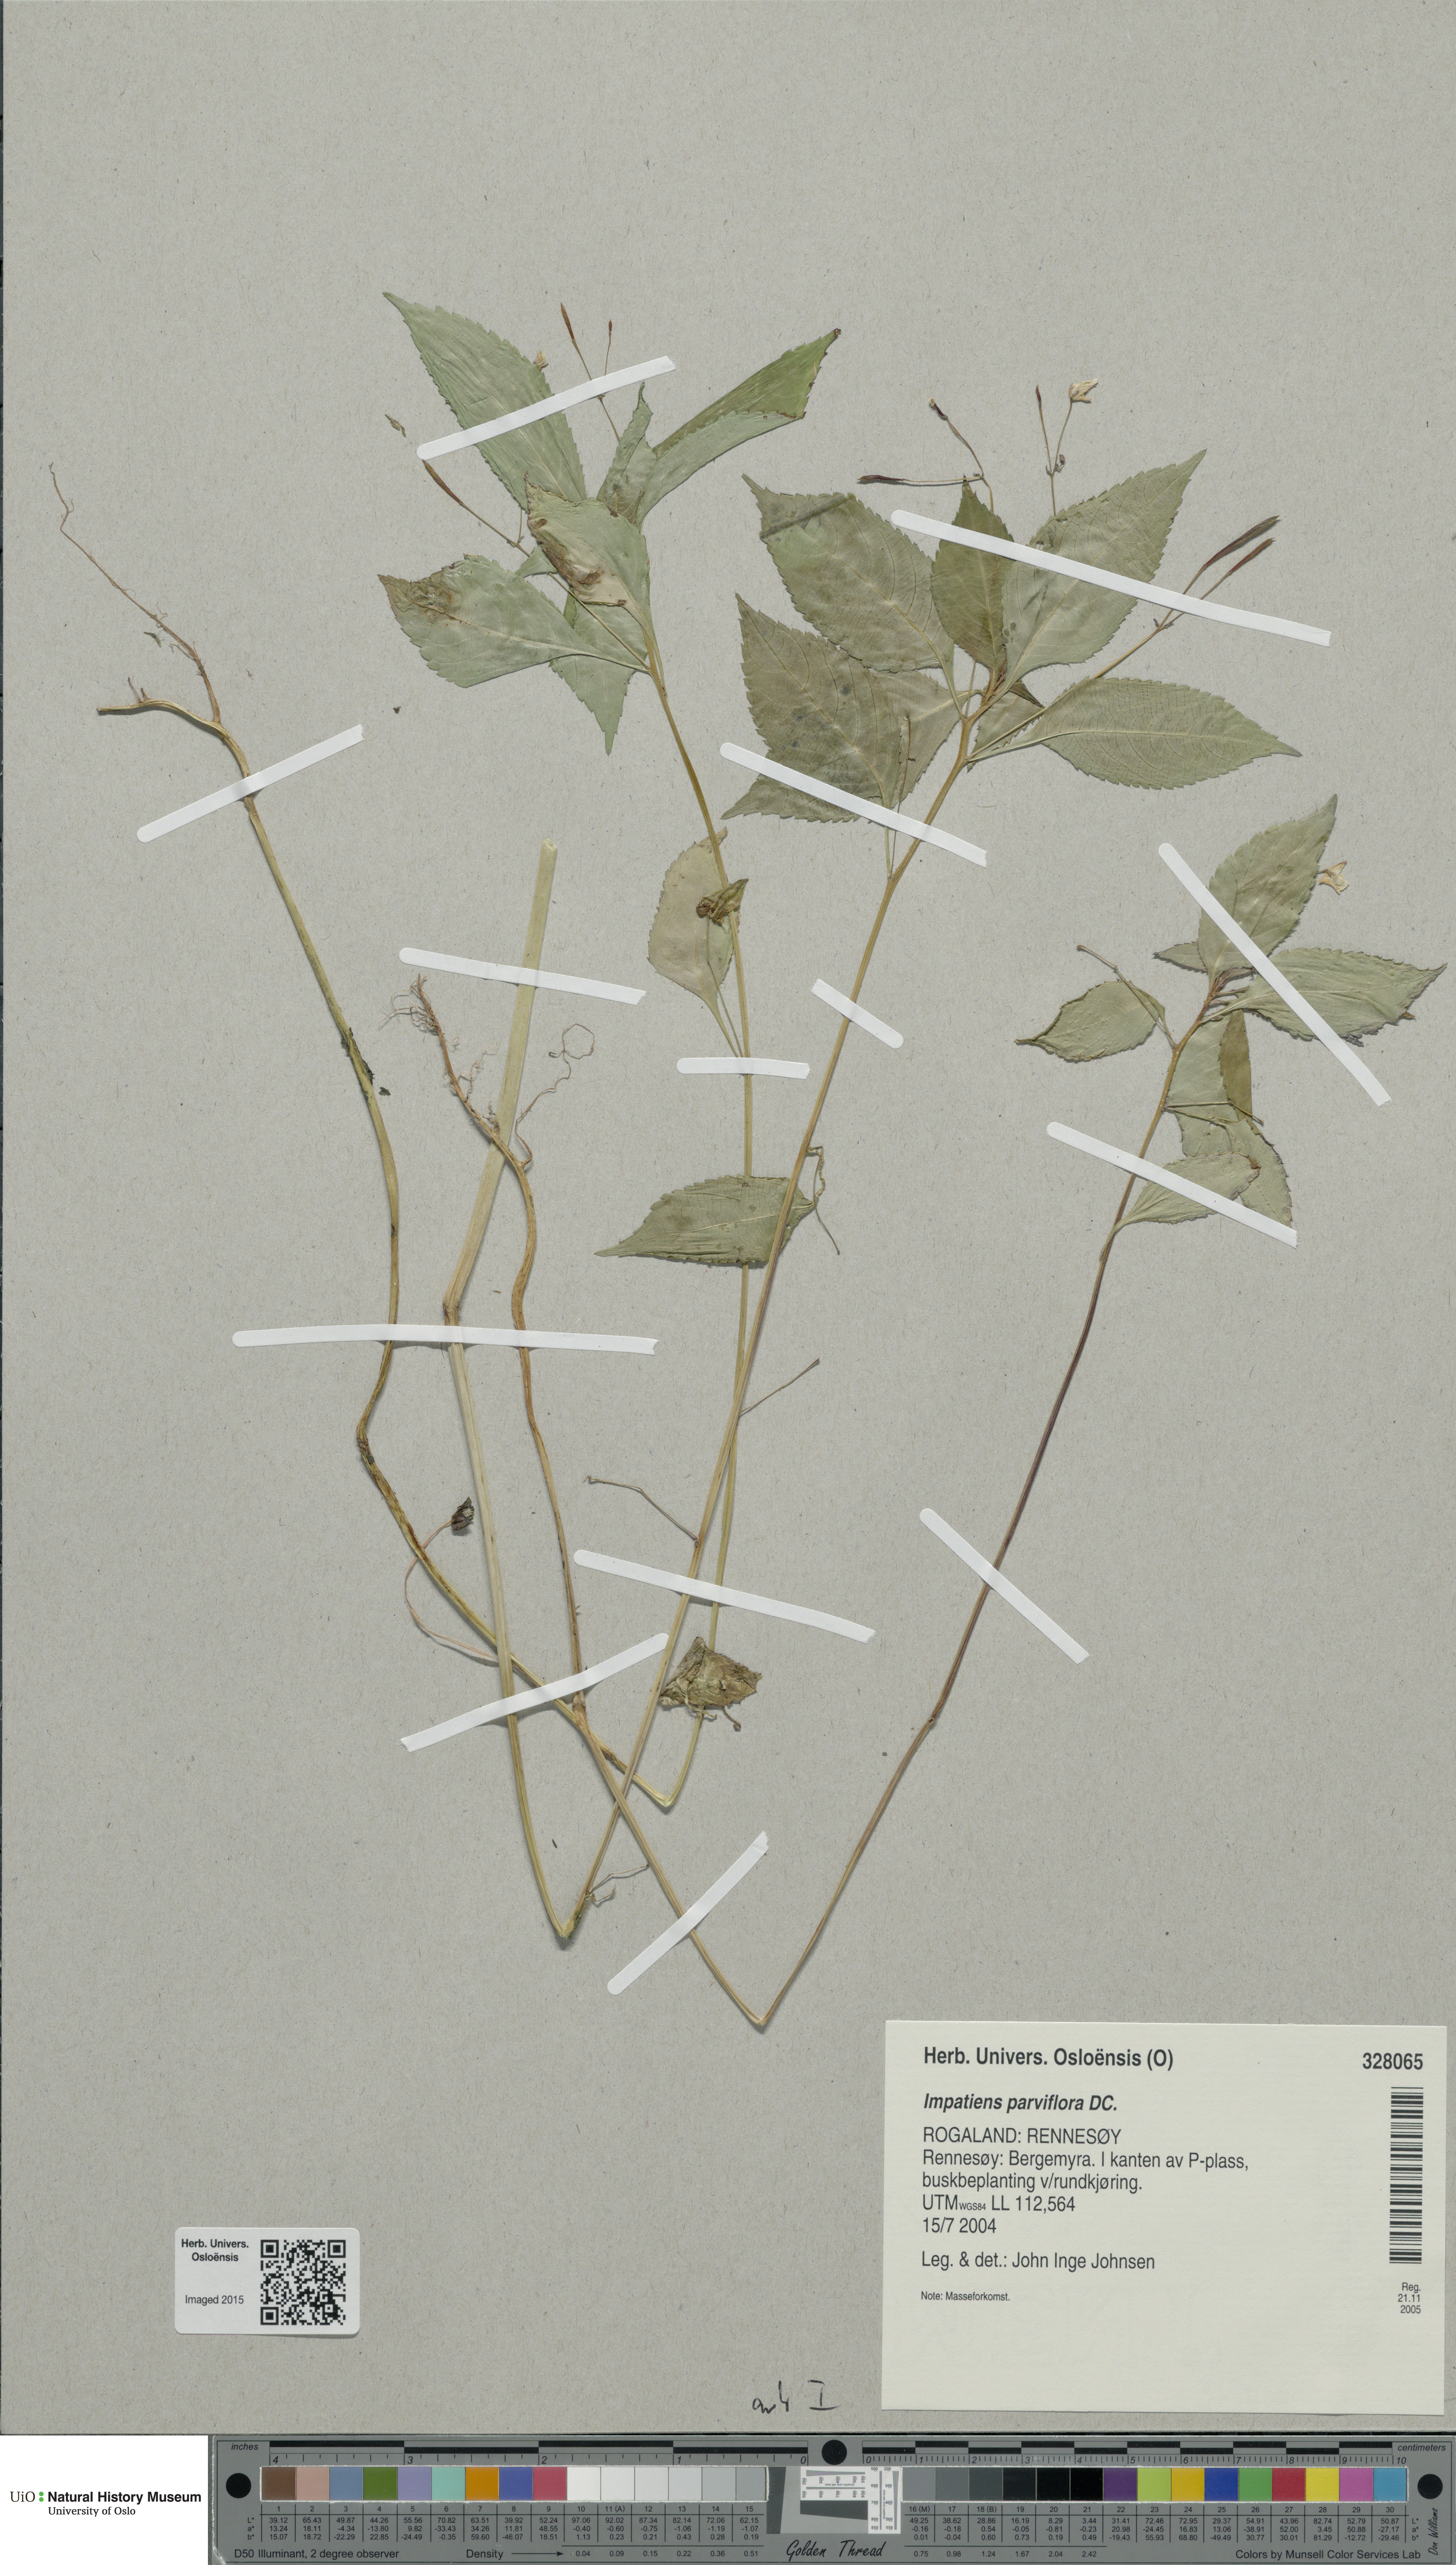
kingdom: Plantae
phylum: Tracheophyta
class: Magnoliopsida
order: Ericales
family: Balsaminaceae
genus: Impatiens
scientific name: Impatiens parviflora
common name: Small balsam
